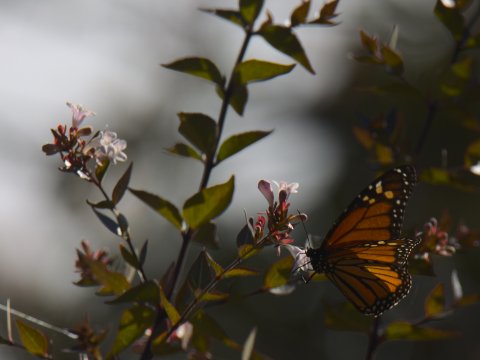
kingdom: Animalia
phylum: Arthropoda
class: Insecta
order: Lepidoptera
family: Nymphalidae
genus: Danaus
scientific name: Danaus plexippus
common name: Monarch
